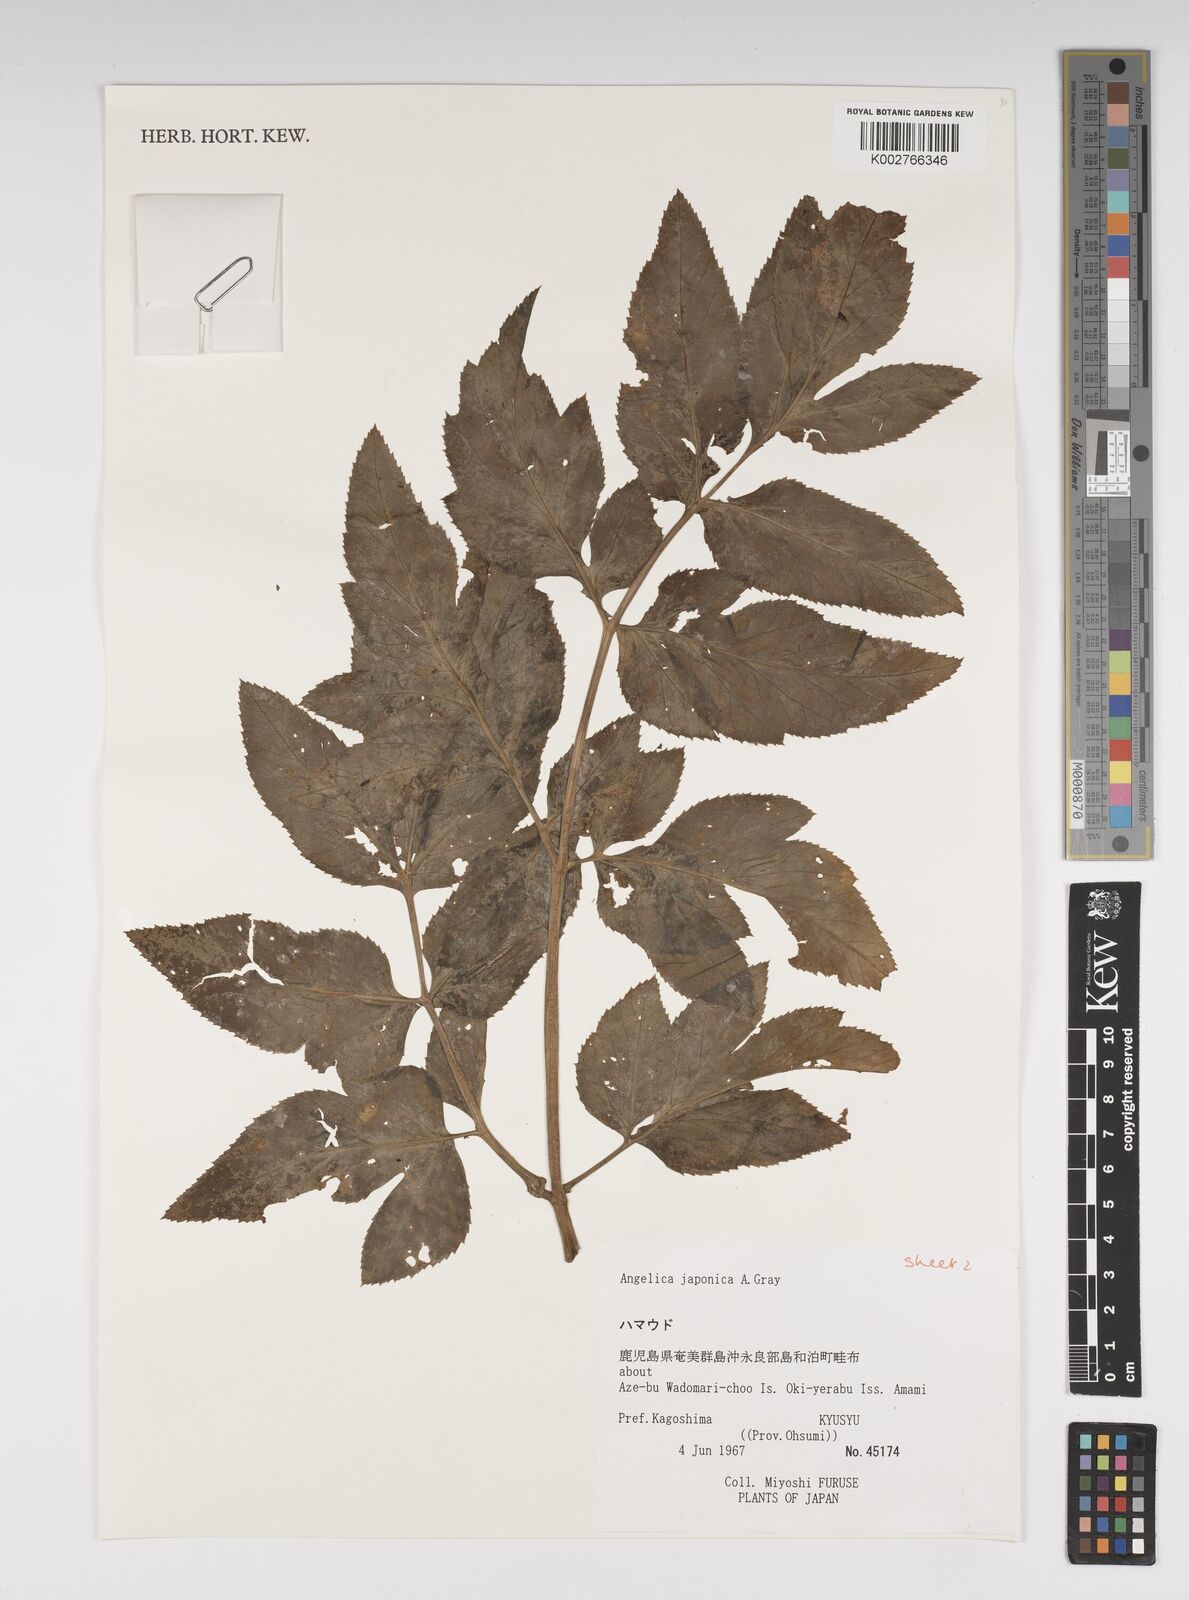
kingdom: Plantae
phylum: Tracheophyta
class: Magnoliopsida
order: Apiales
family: Apiaceae
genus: Angelica
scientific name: Angelica japonica
